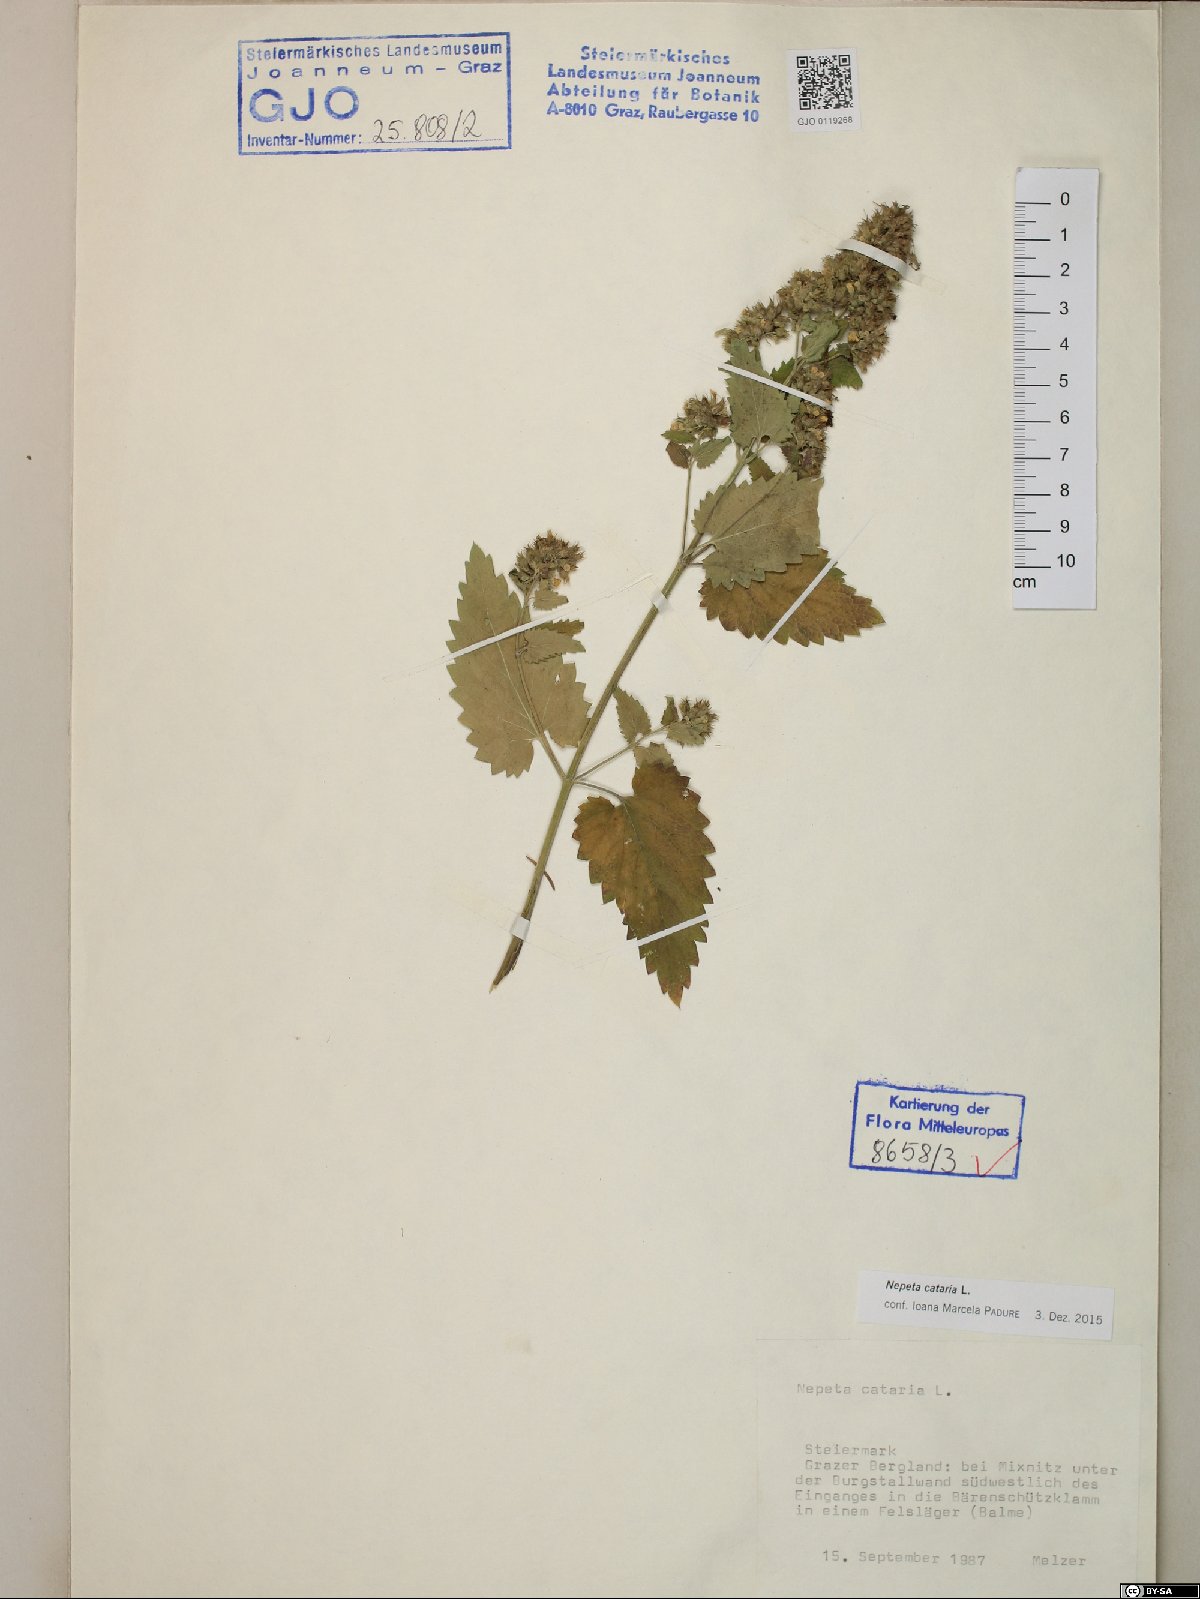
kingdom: Plantae
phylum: Tracheophyta
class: Magnoliopsida
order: Lamiales
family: Lamiaceae
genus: Nepeta
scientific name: Nepeta cataria
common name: Catnip
